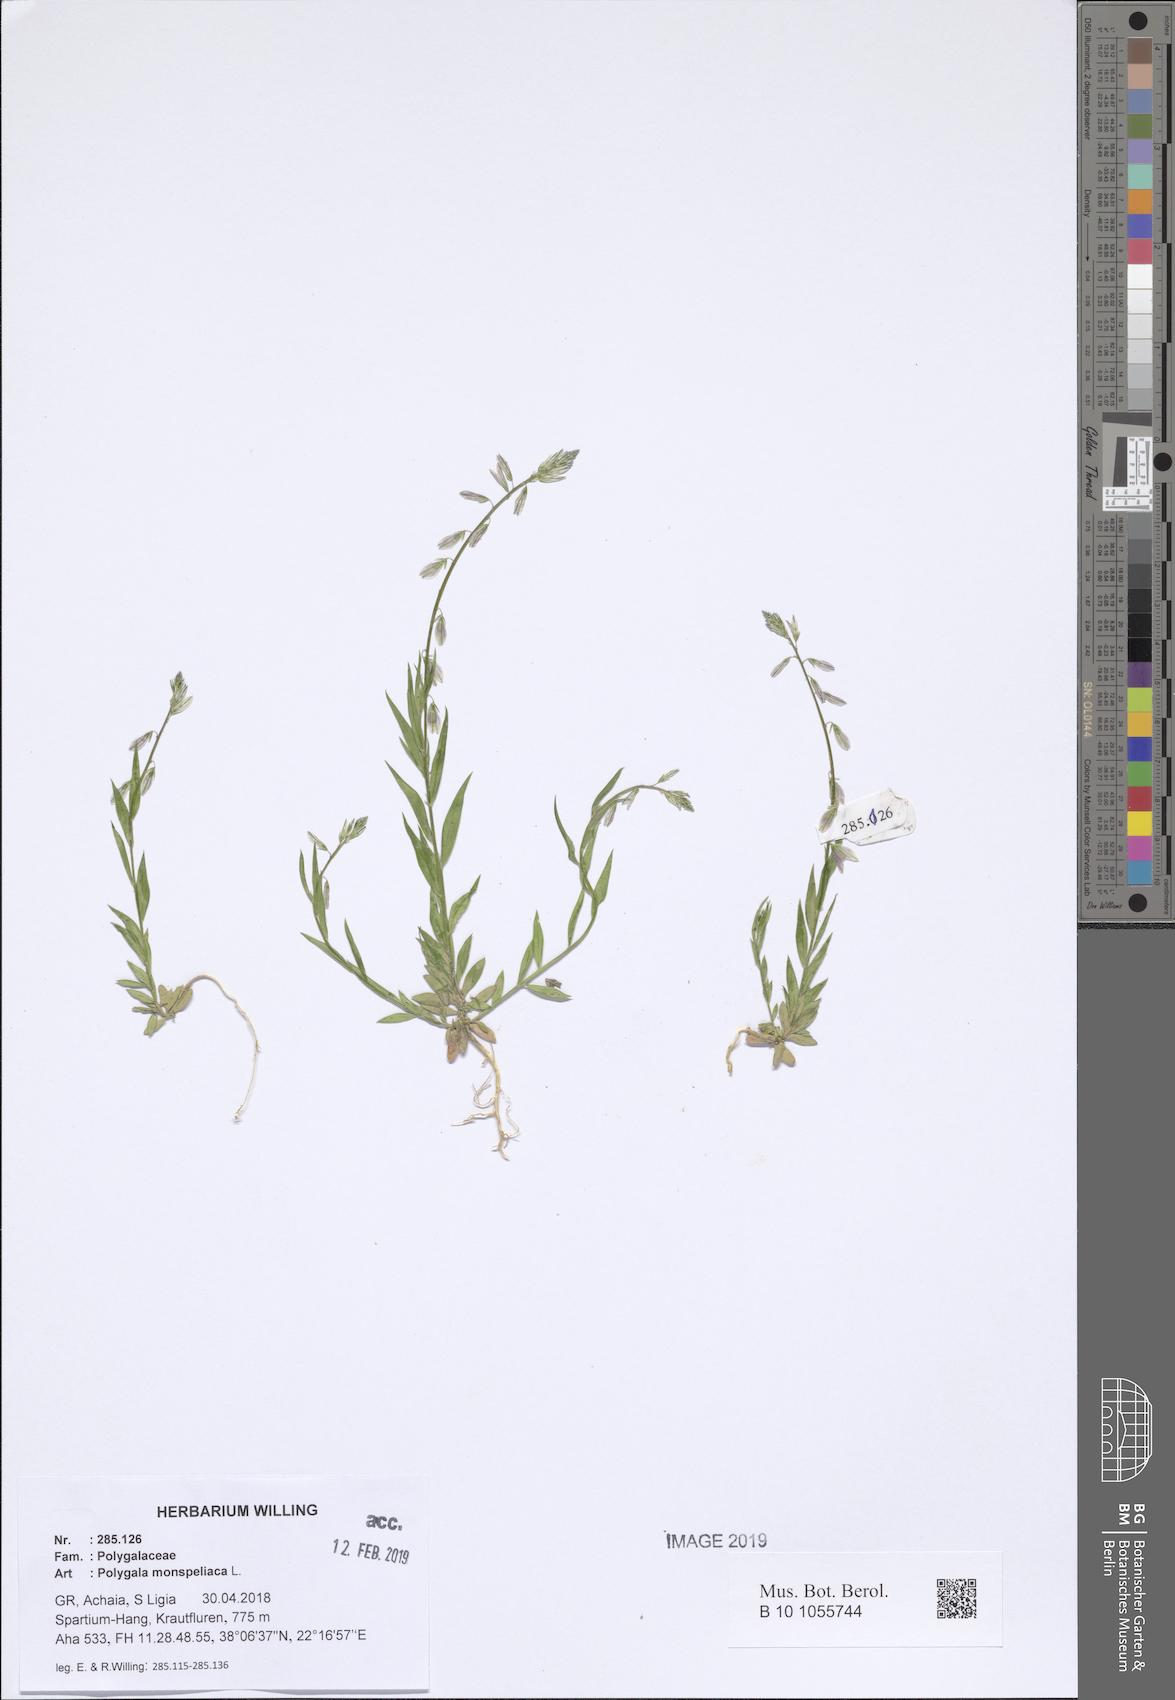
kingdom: Plantae
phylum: Tracheophyta
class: Magnoliopsida
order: Fabales
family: Polygalaceae
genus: Polygala
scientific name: Polygala monspeliaca
